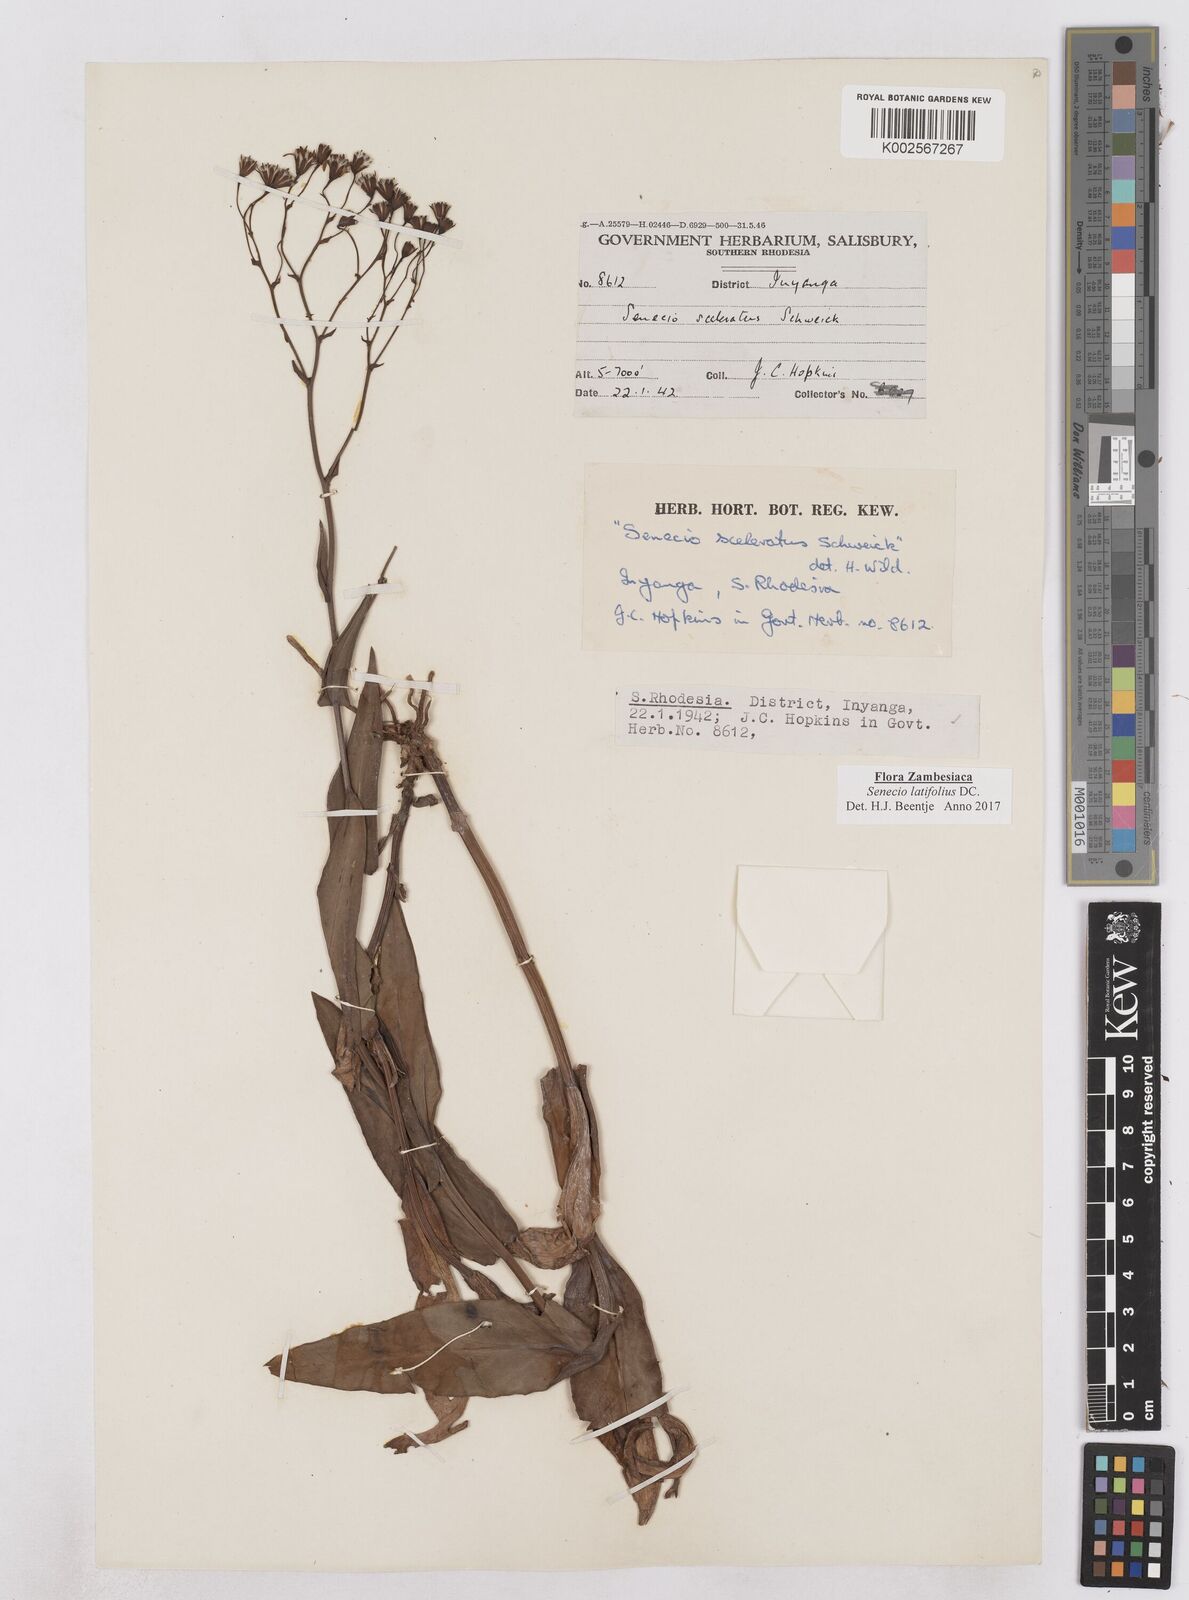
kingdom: Plantae
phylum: Tracheophyta
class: Magnoliopsida
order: Asterales
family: Asteraceae
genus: Senecio
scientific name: Senecio latifolius
